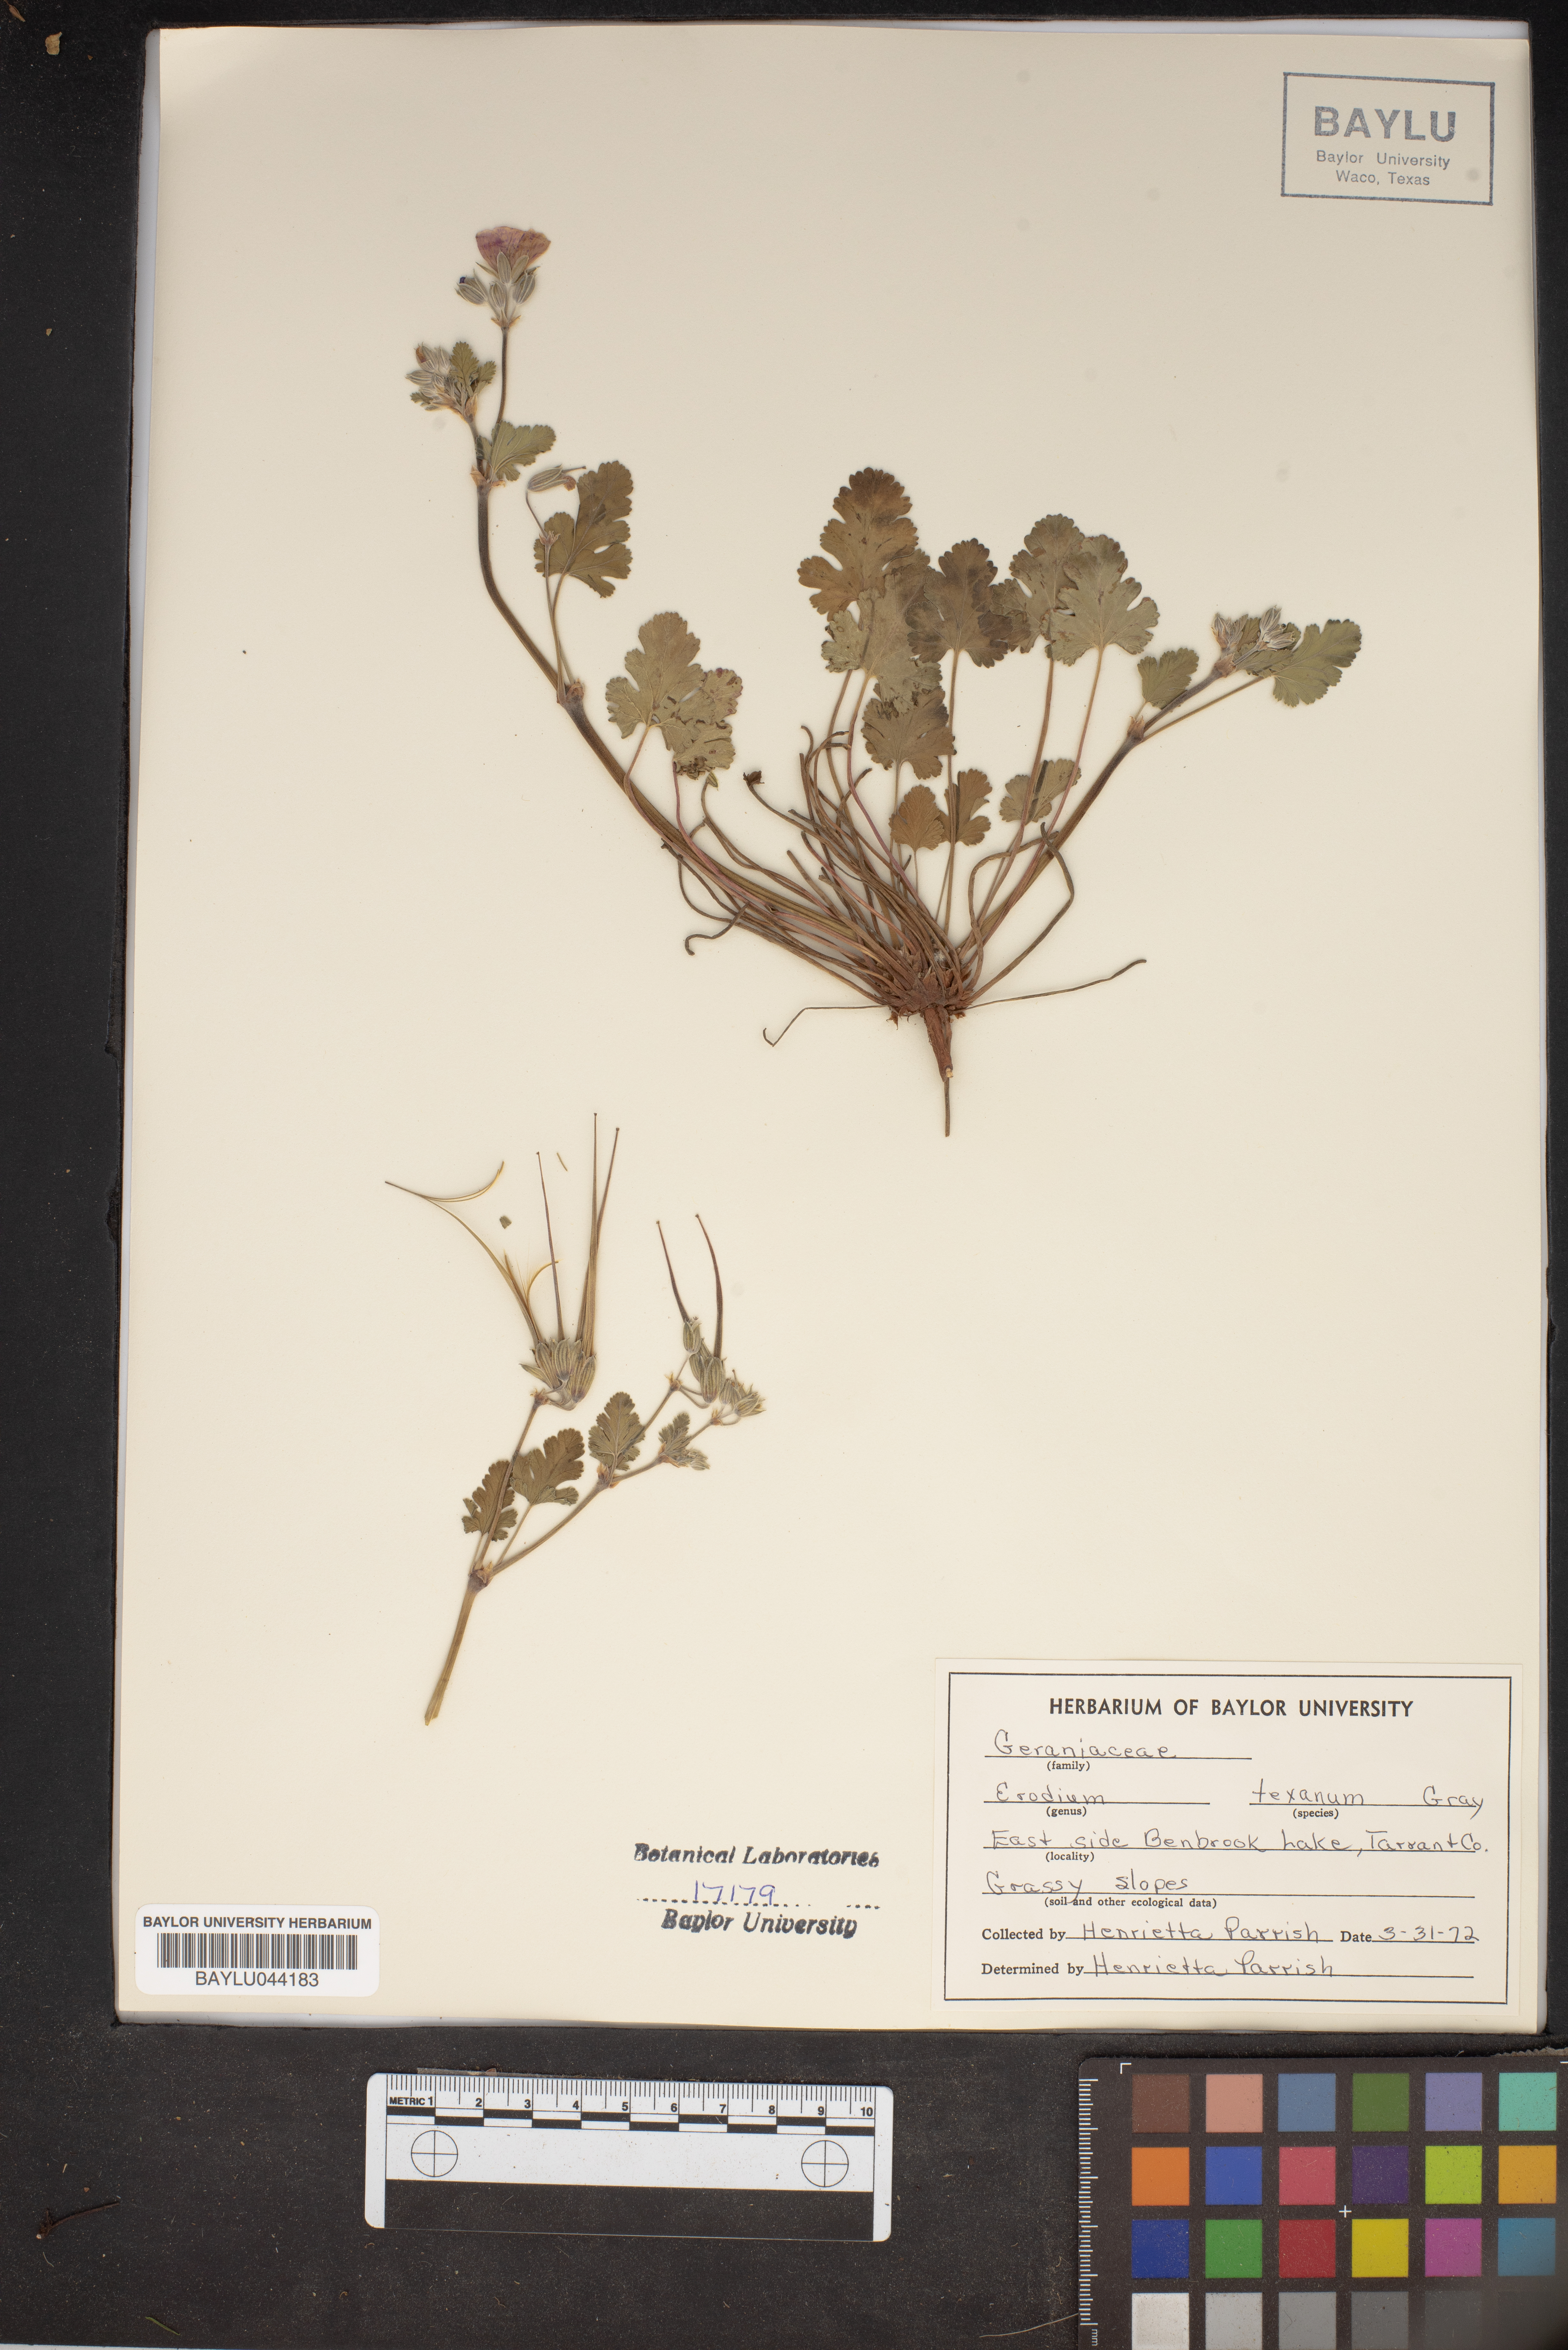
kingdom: Plantae
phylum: Tracheophyta
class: Magnoliopsida
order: Geraniales
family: Geraniaceae
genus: Erodium
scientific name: Erodium texanum
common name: Texas stork's-bill
